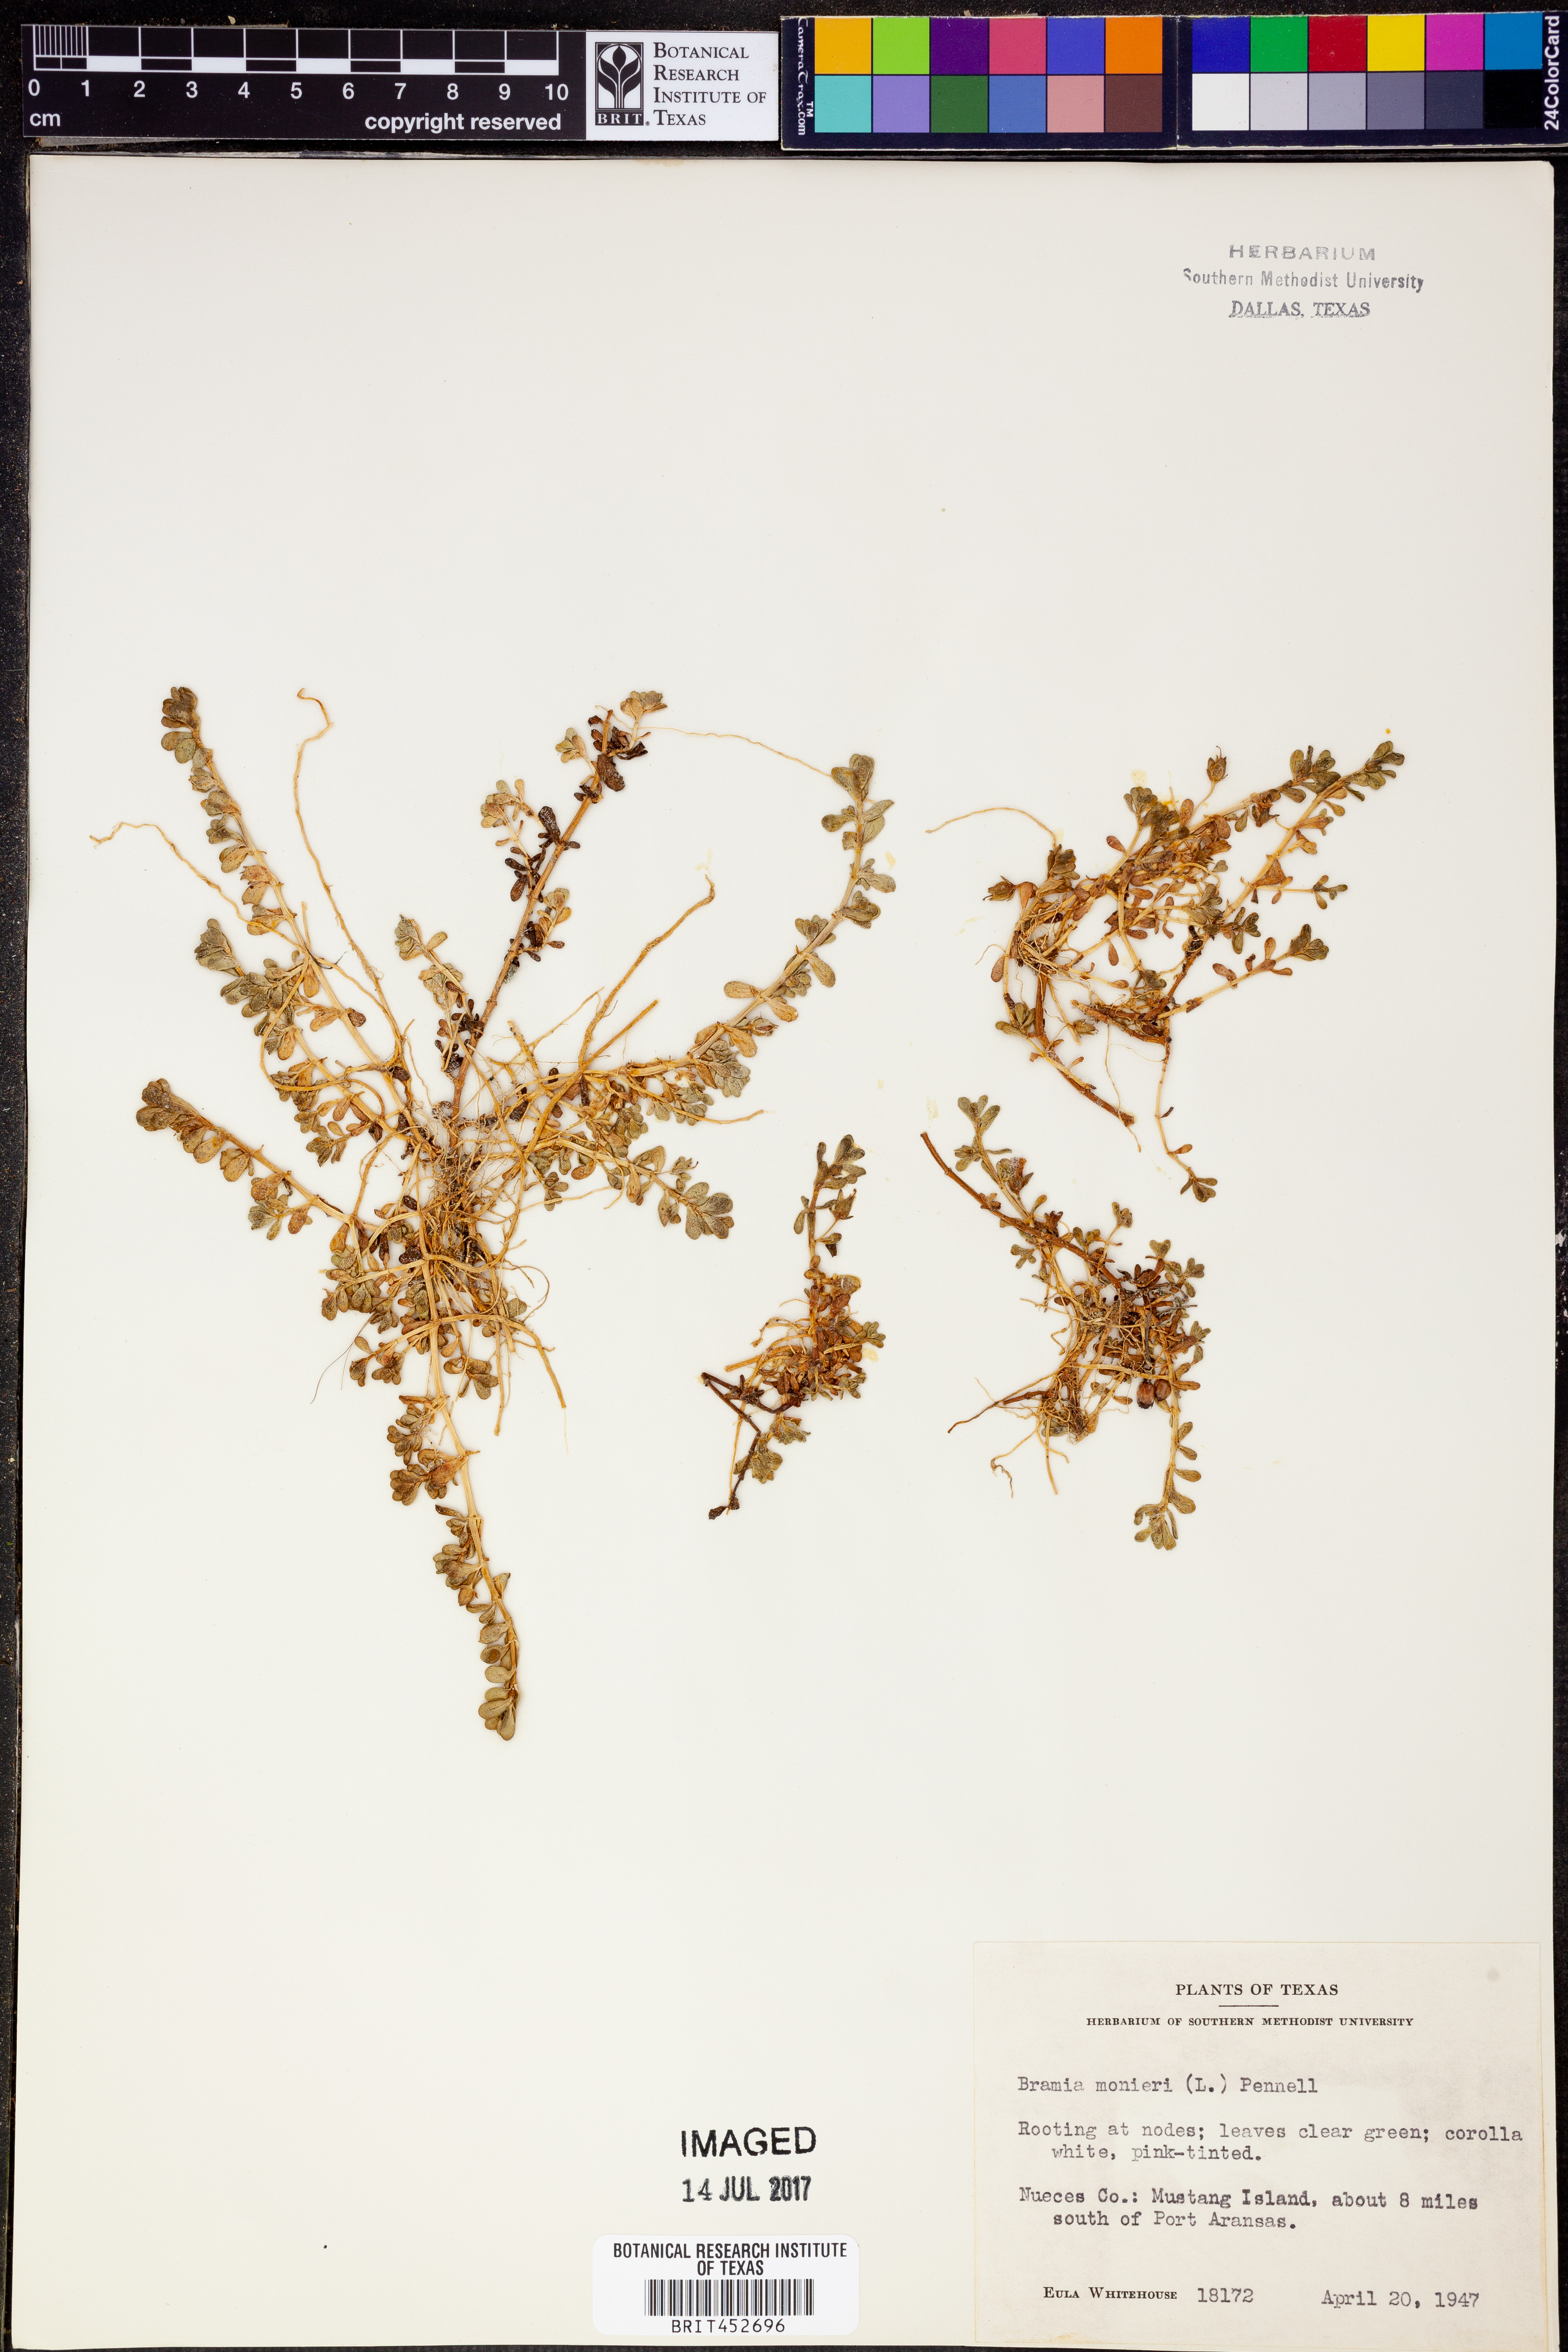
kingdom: Plantae
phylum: Tracheophyta
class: Magnoliopsida
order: Lamiales
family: Plantaginaceae
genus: Bacopa
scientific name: Bacopa monnieri
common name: Indian-pennywort
